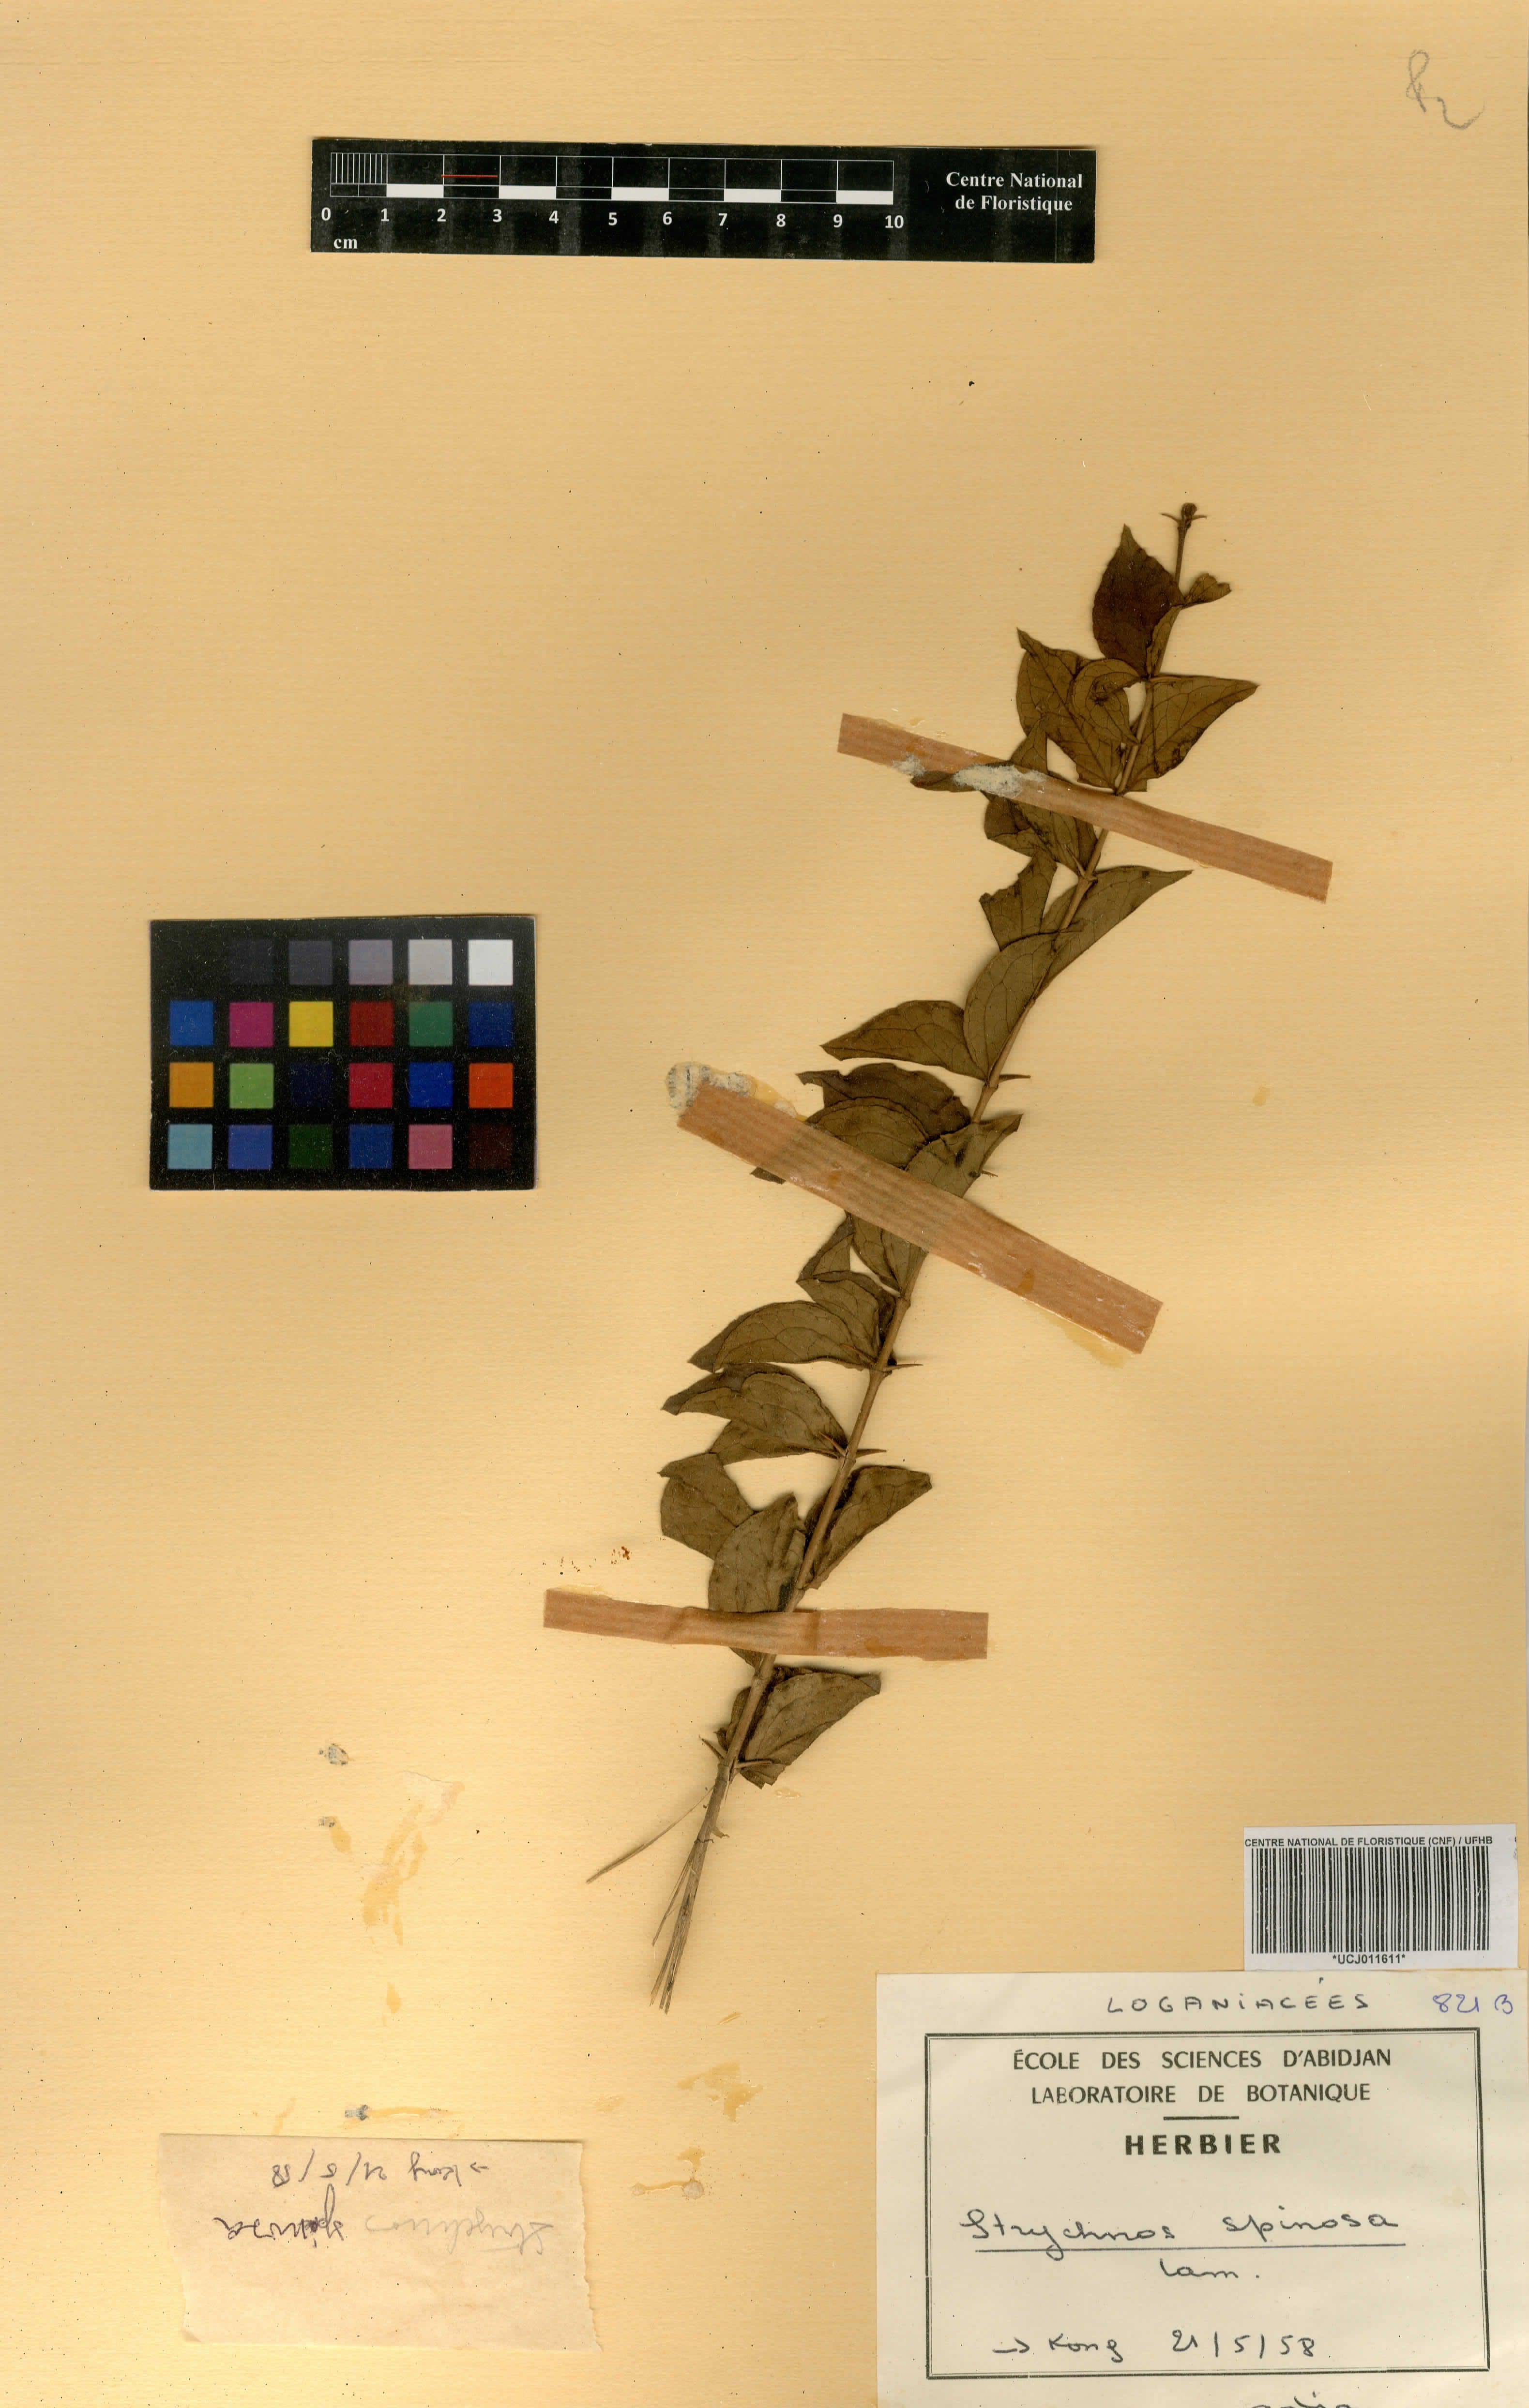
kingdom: Plantae
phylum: Tracheophyta
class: Magnoliopsida
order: Gentianales
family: Loganiaceae
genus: Strychnos
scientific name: Strychnos spinosa
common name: Natal orange
